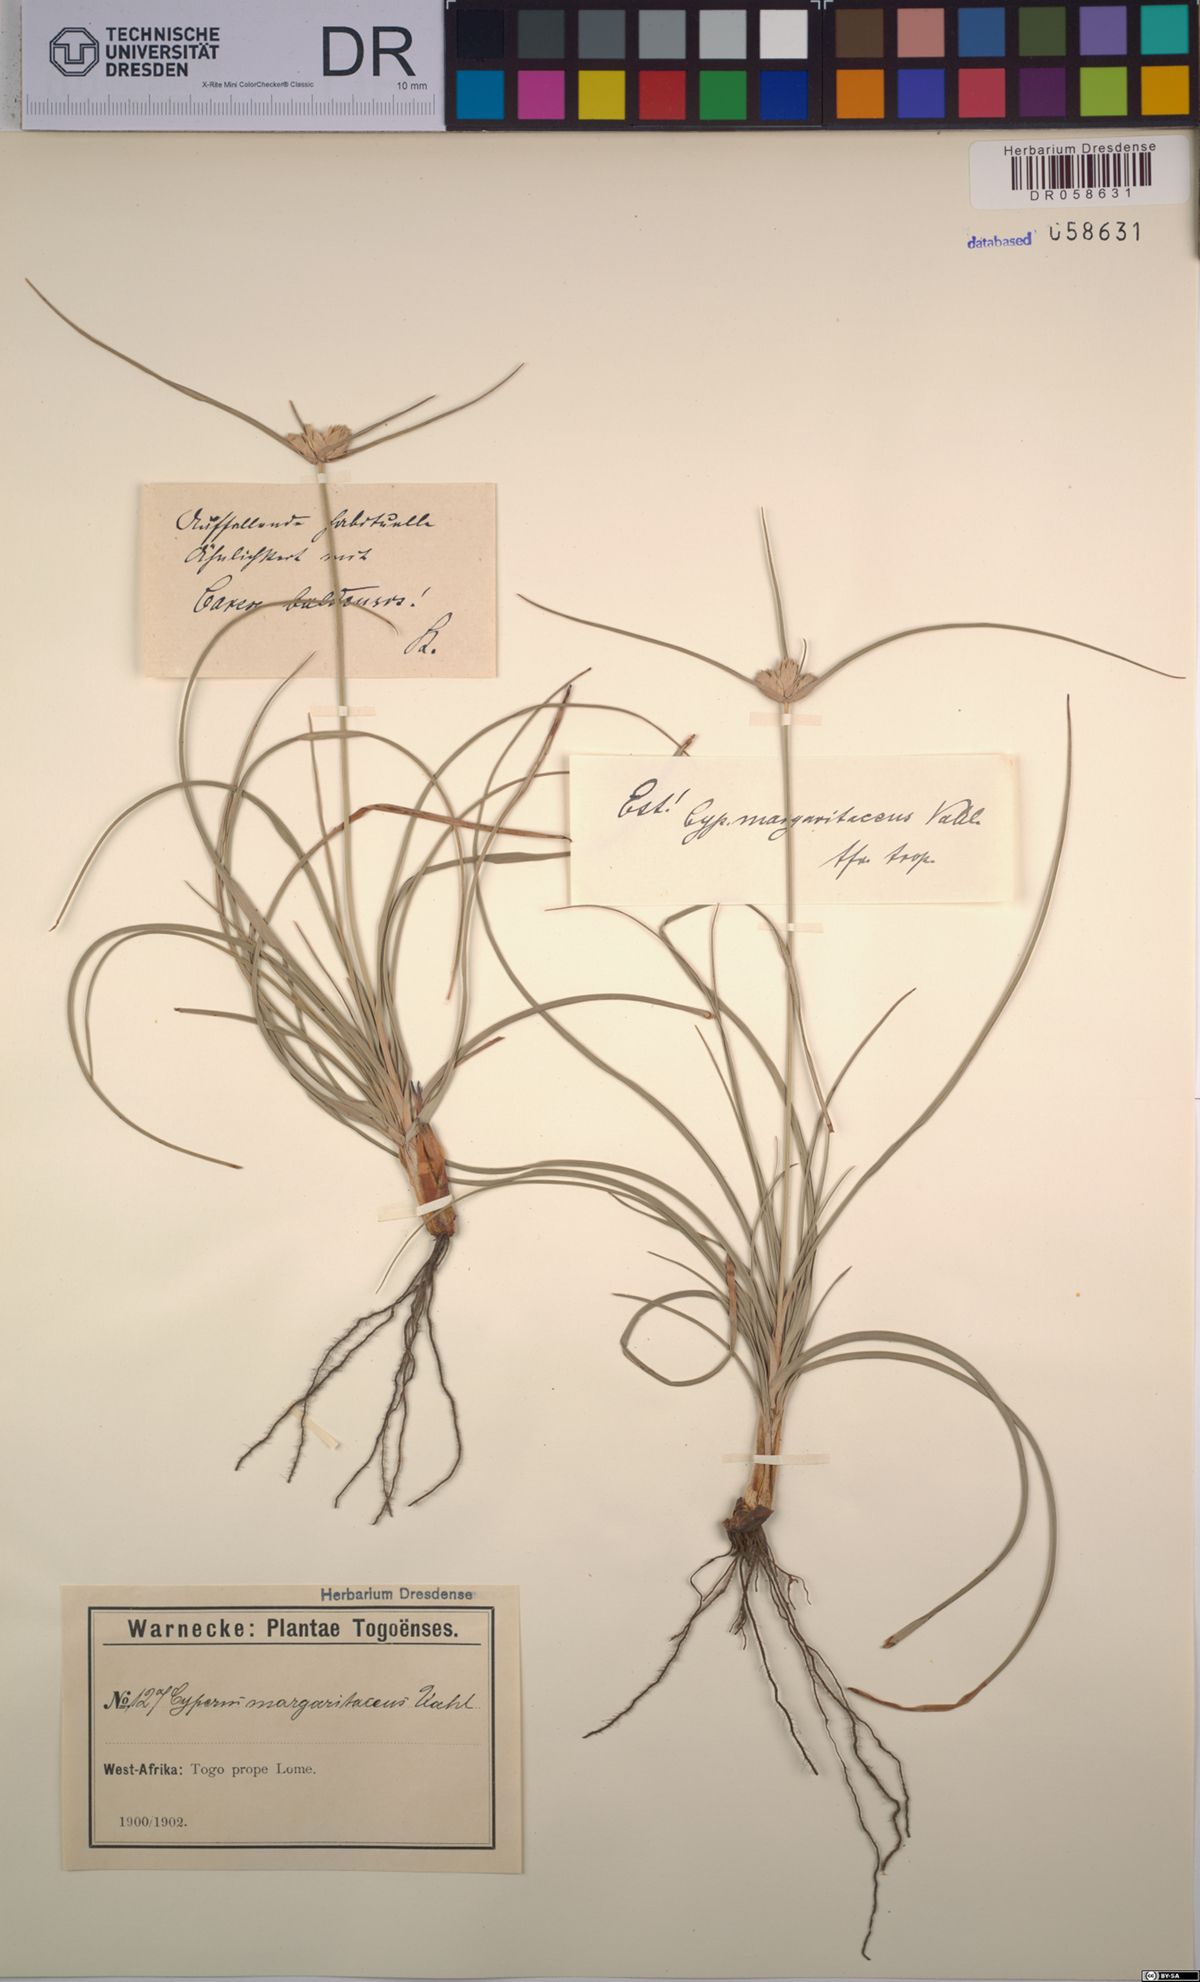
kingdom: Plantae
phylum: Tracheophyta
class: Liliopsida
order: Poales
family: Cyperaceae
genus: Cyperus
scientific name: Cyperus margaritaceus
